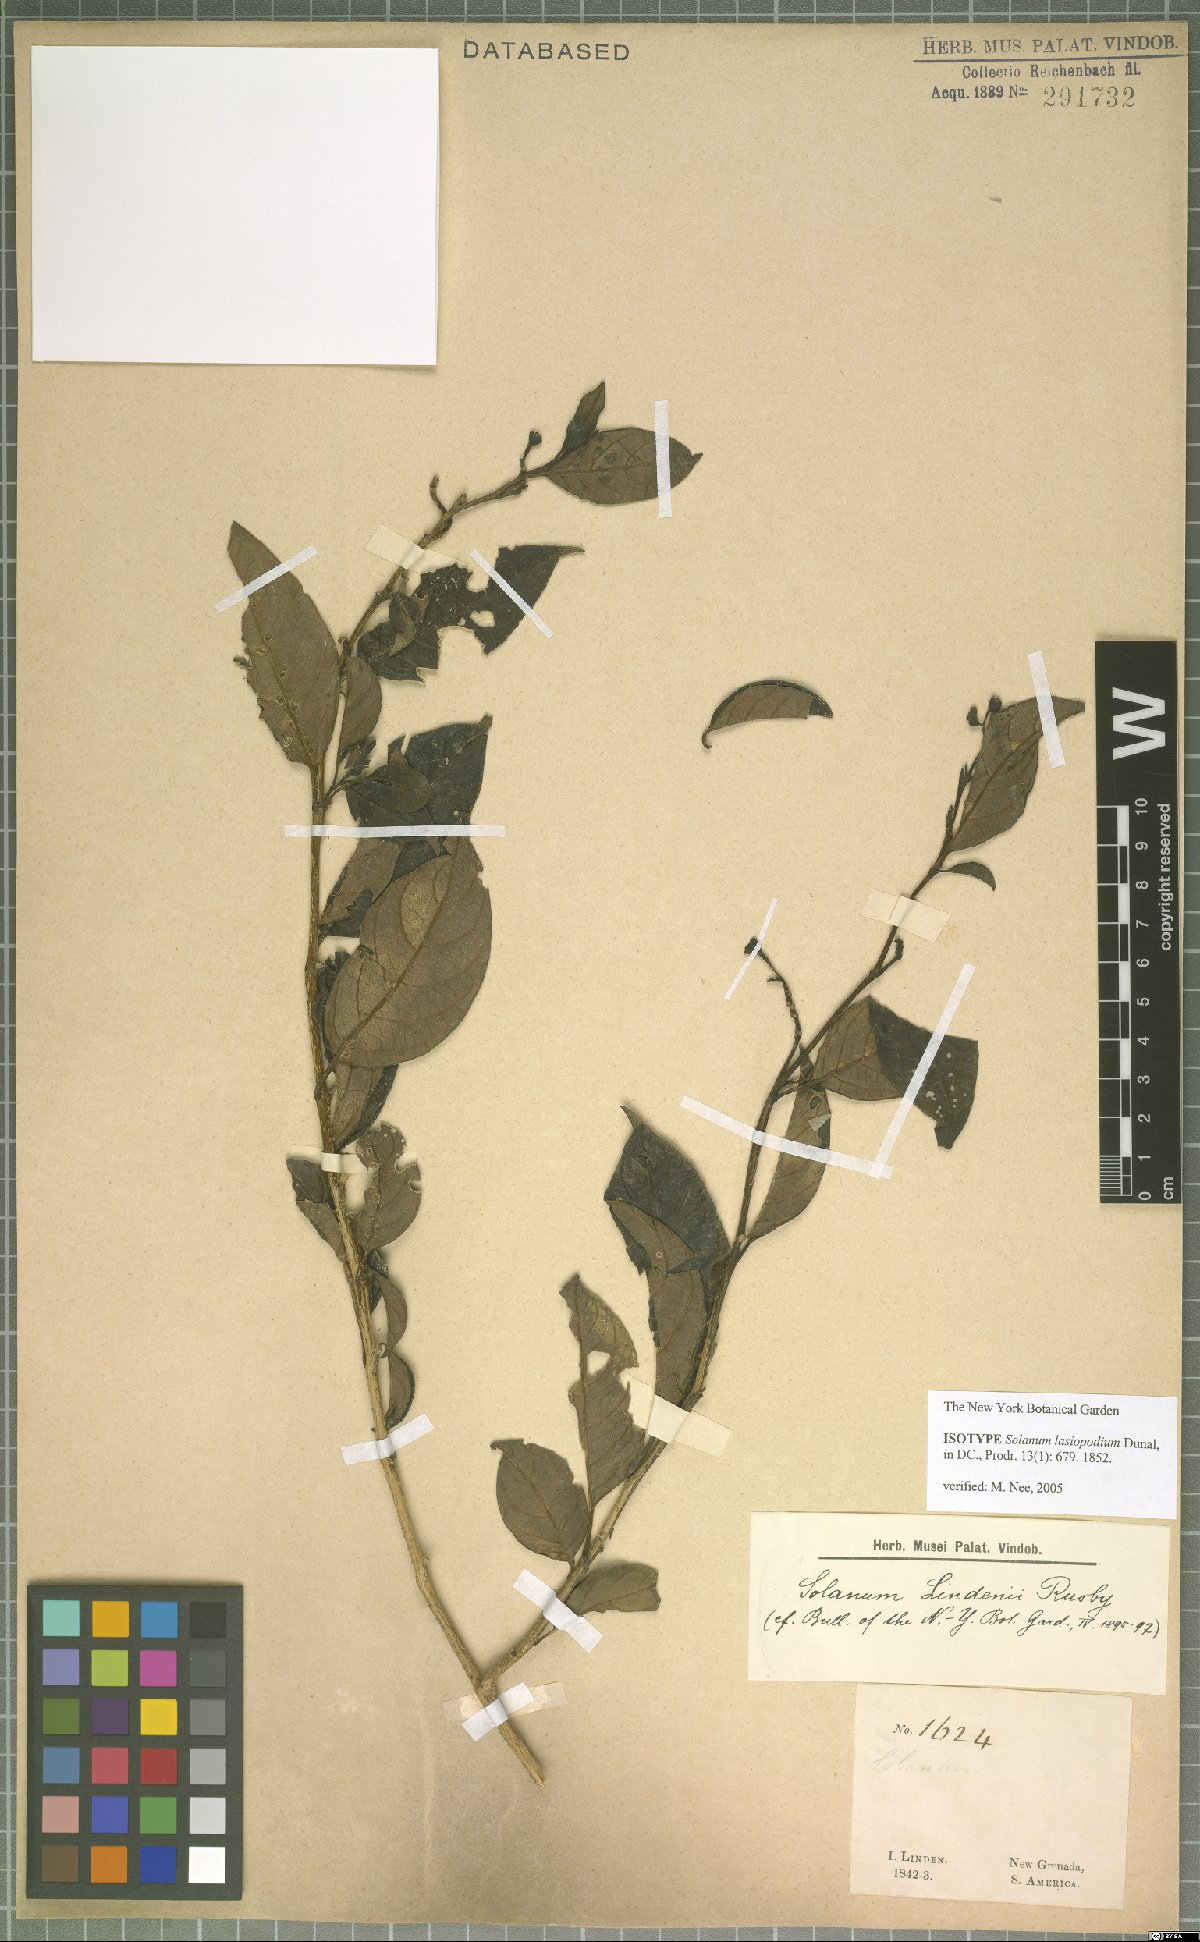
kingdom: Plantae
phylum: Tracheophyta
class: Magnoliopsida
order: Solanales
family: Solanaceae
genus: Solanum
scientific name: Solanum lasiopodium
